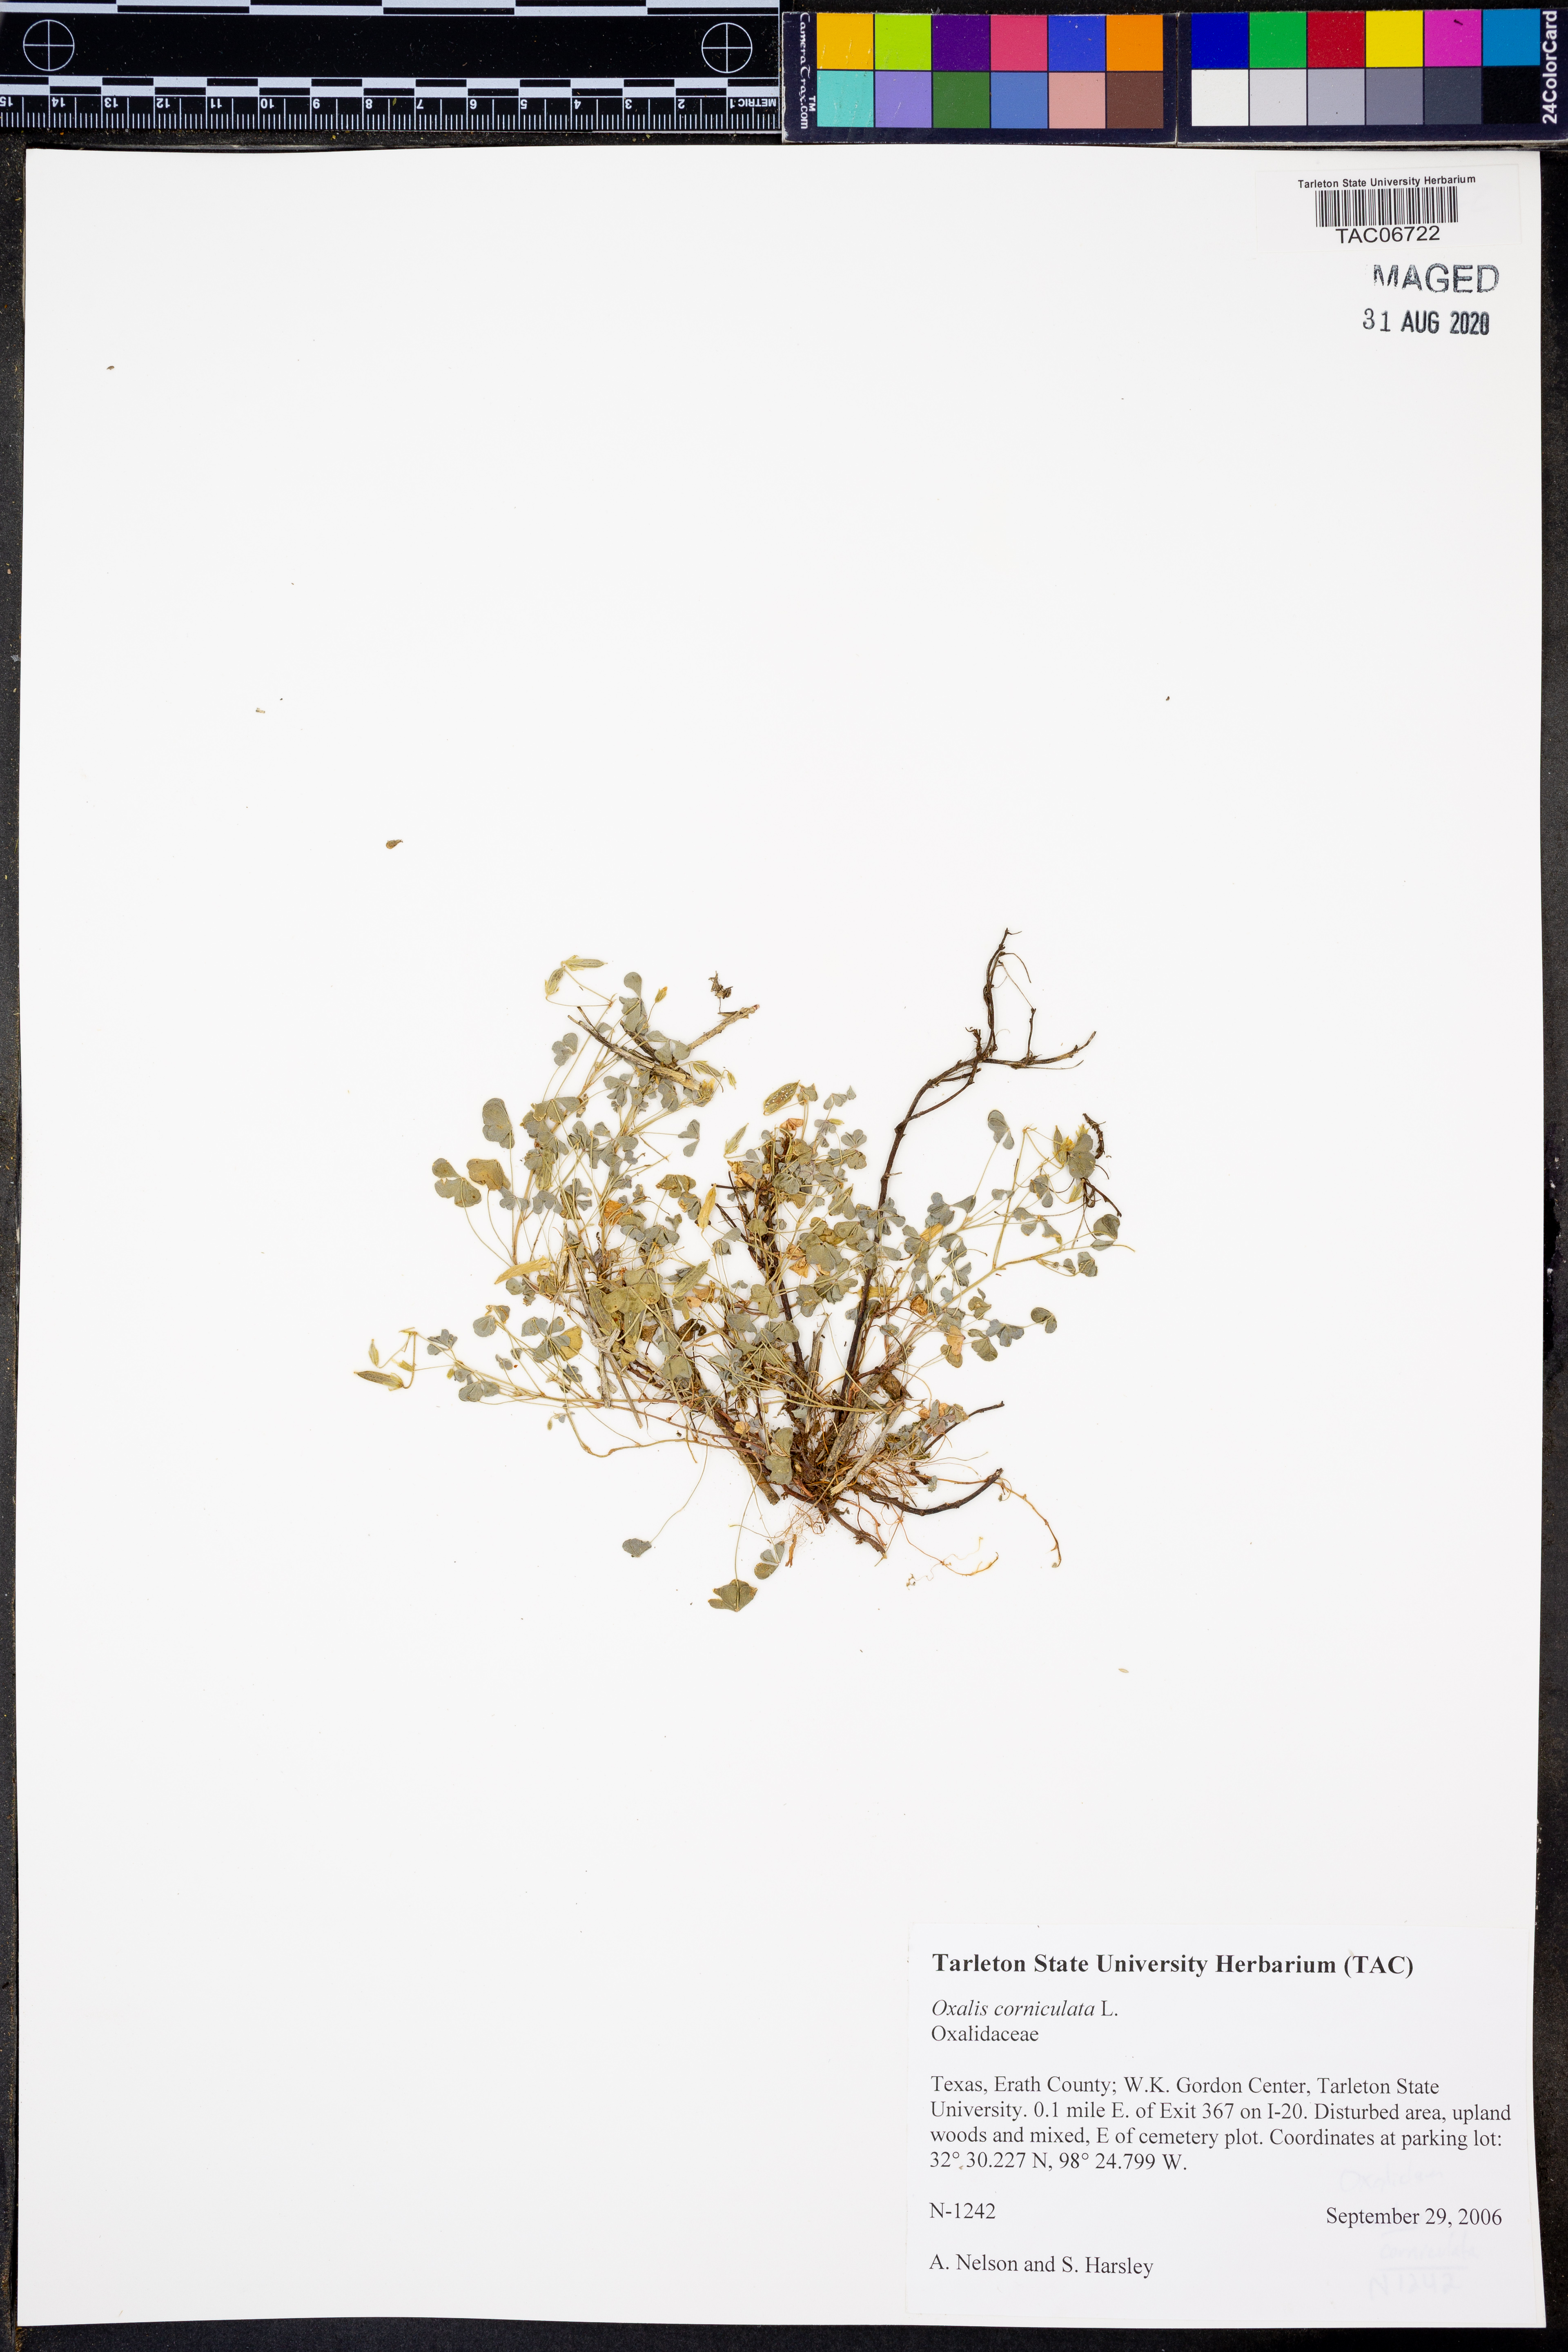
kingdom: Plantae
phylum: Tracheophyta
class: Magnoliopsida
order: Oxalidales
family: Oxalidaceae
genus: Oxalis
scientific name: Oxalis corniculata
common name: Procumbent yellow-sorrel
